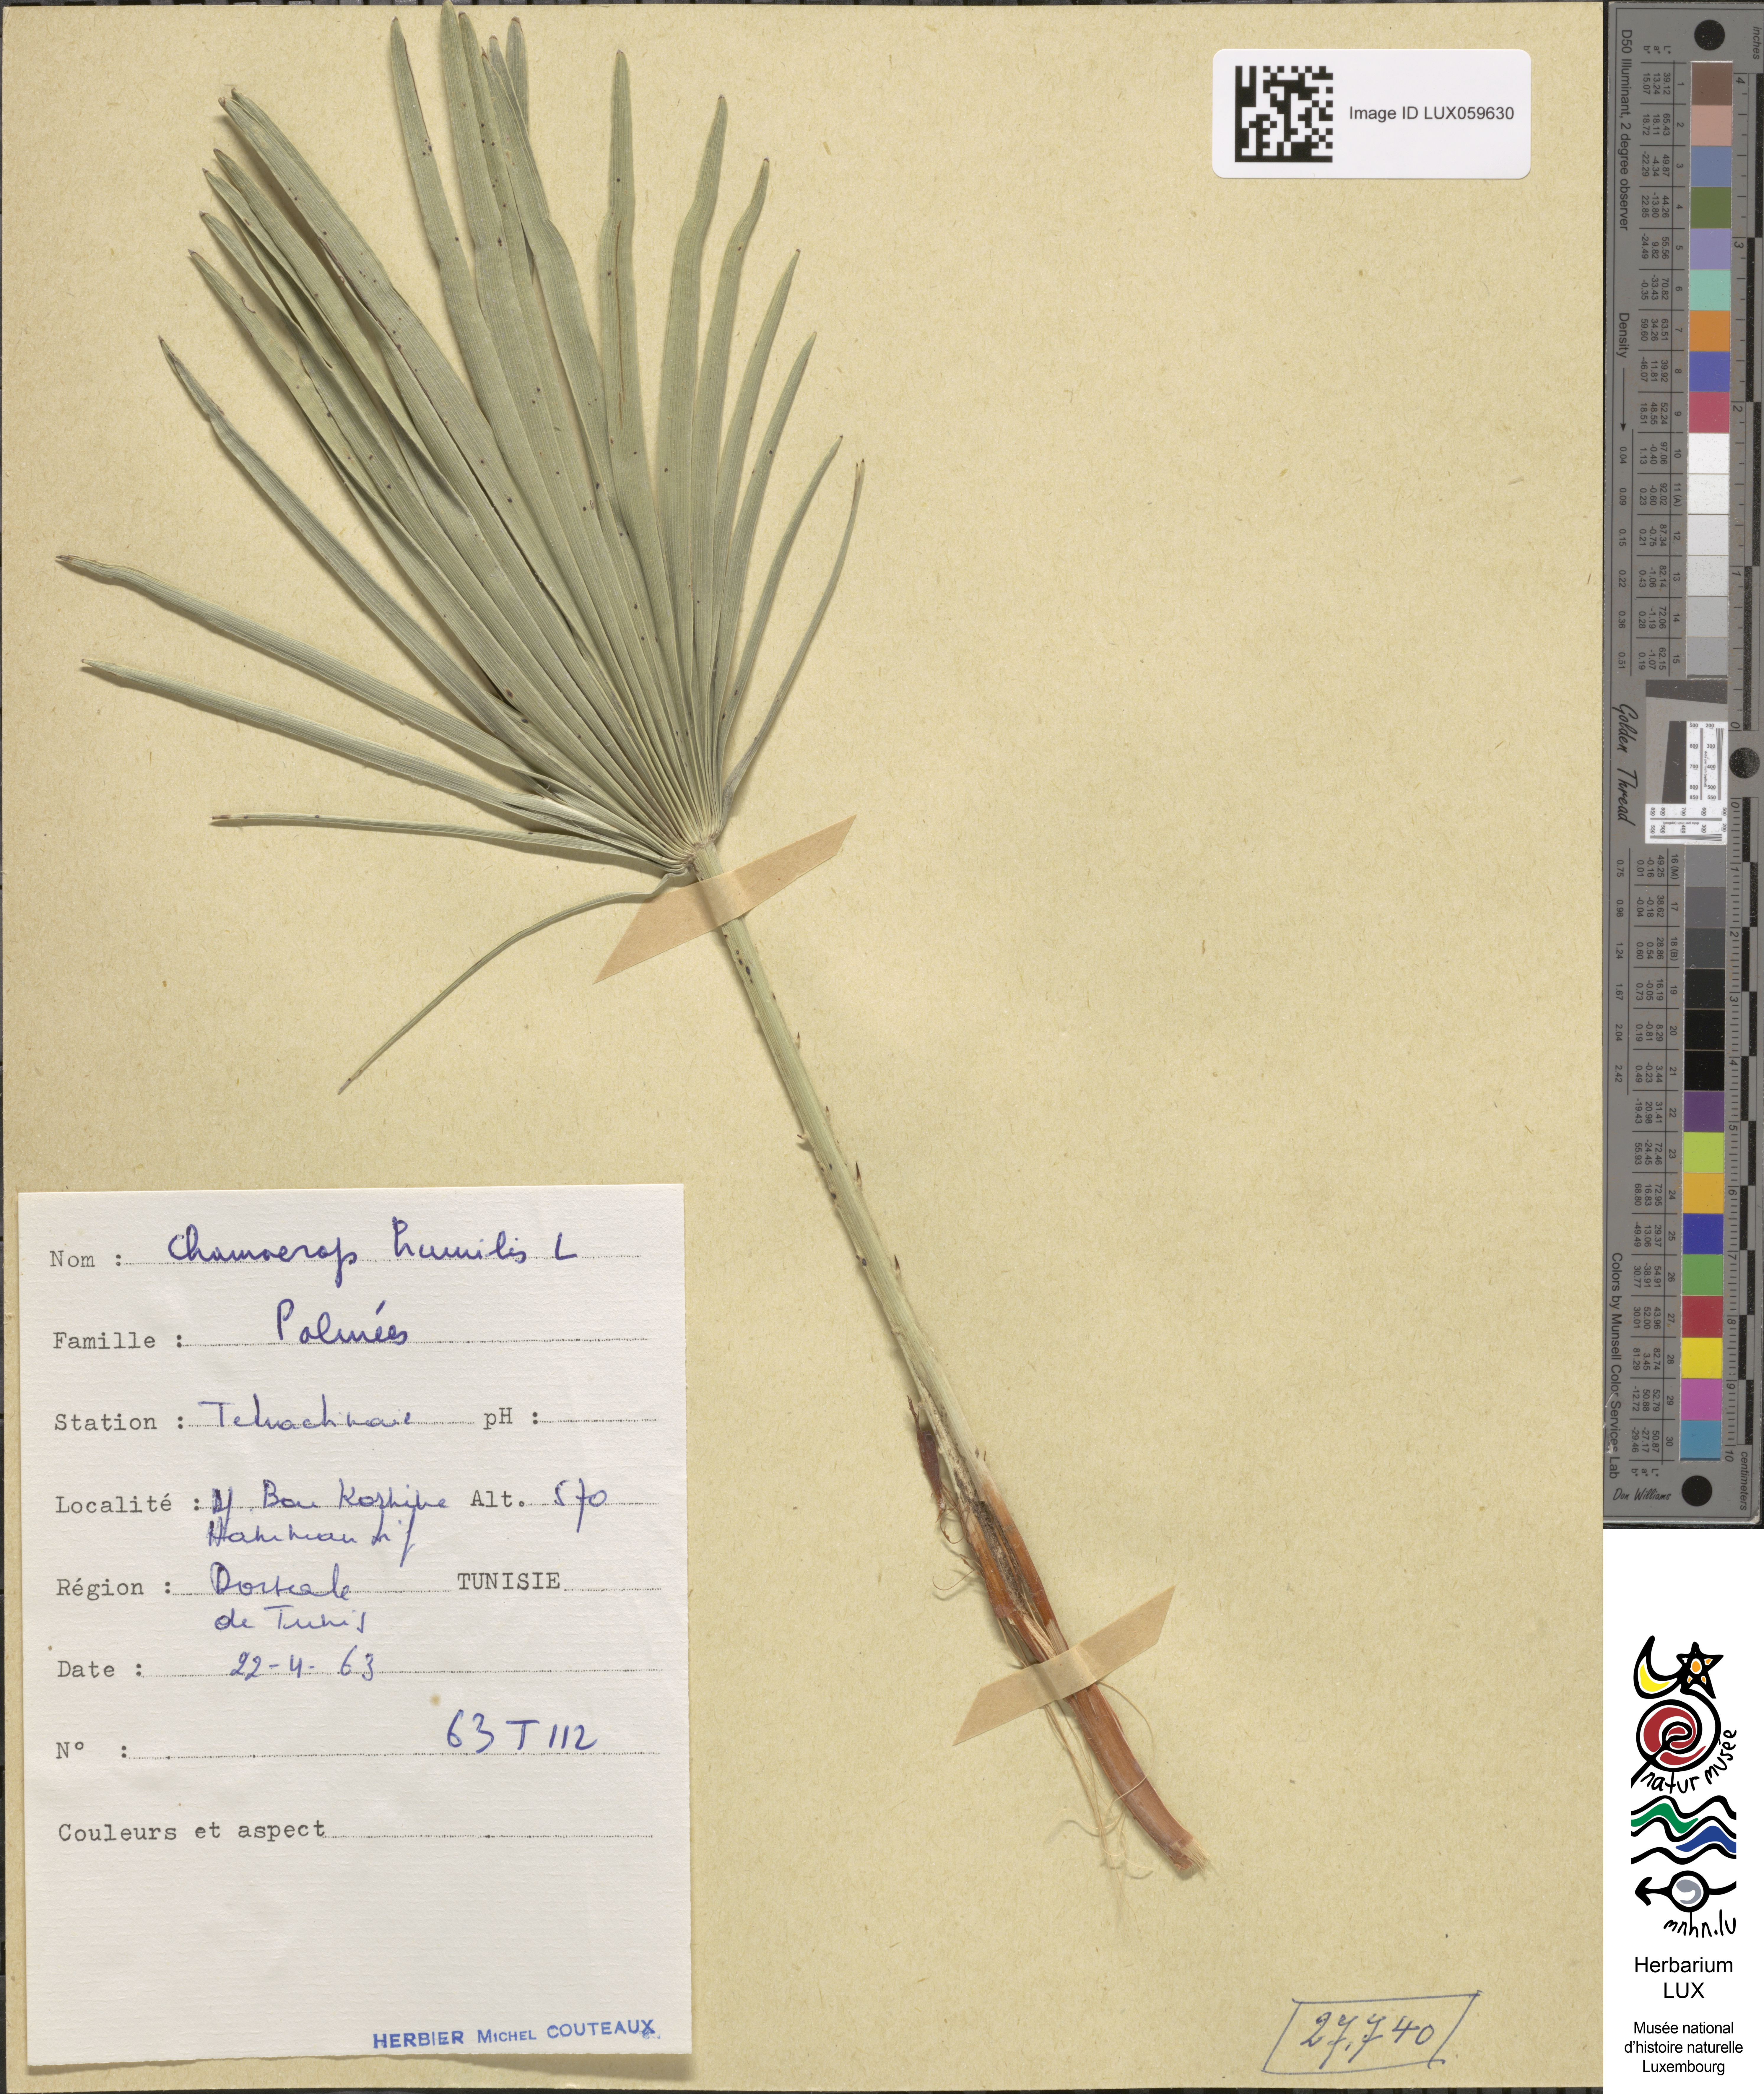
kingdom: Plantae
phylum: Tracheophyta
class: Liliopsida
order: Arecales
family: Arecaceae
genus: Chamaerops
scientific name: Chamaerops humilis
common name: Dwarf fan palm
